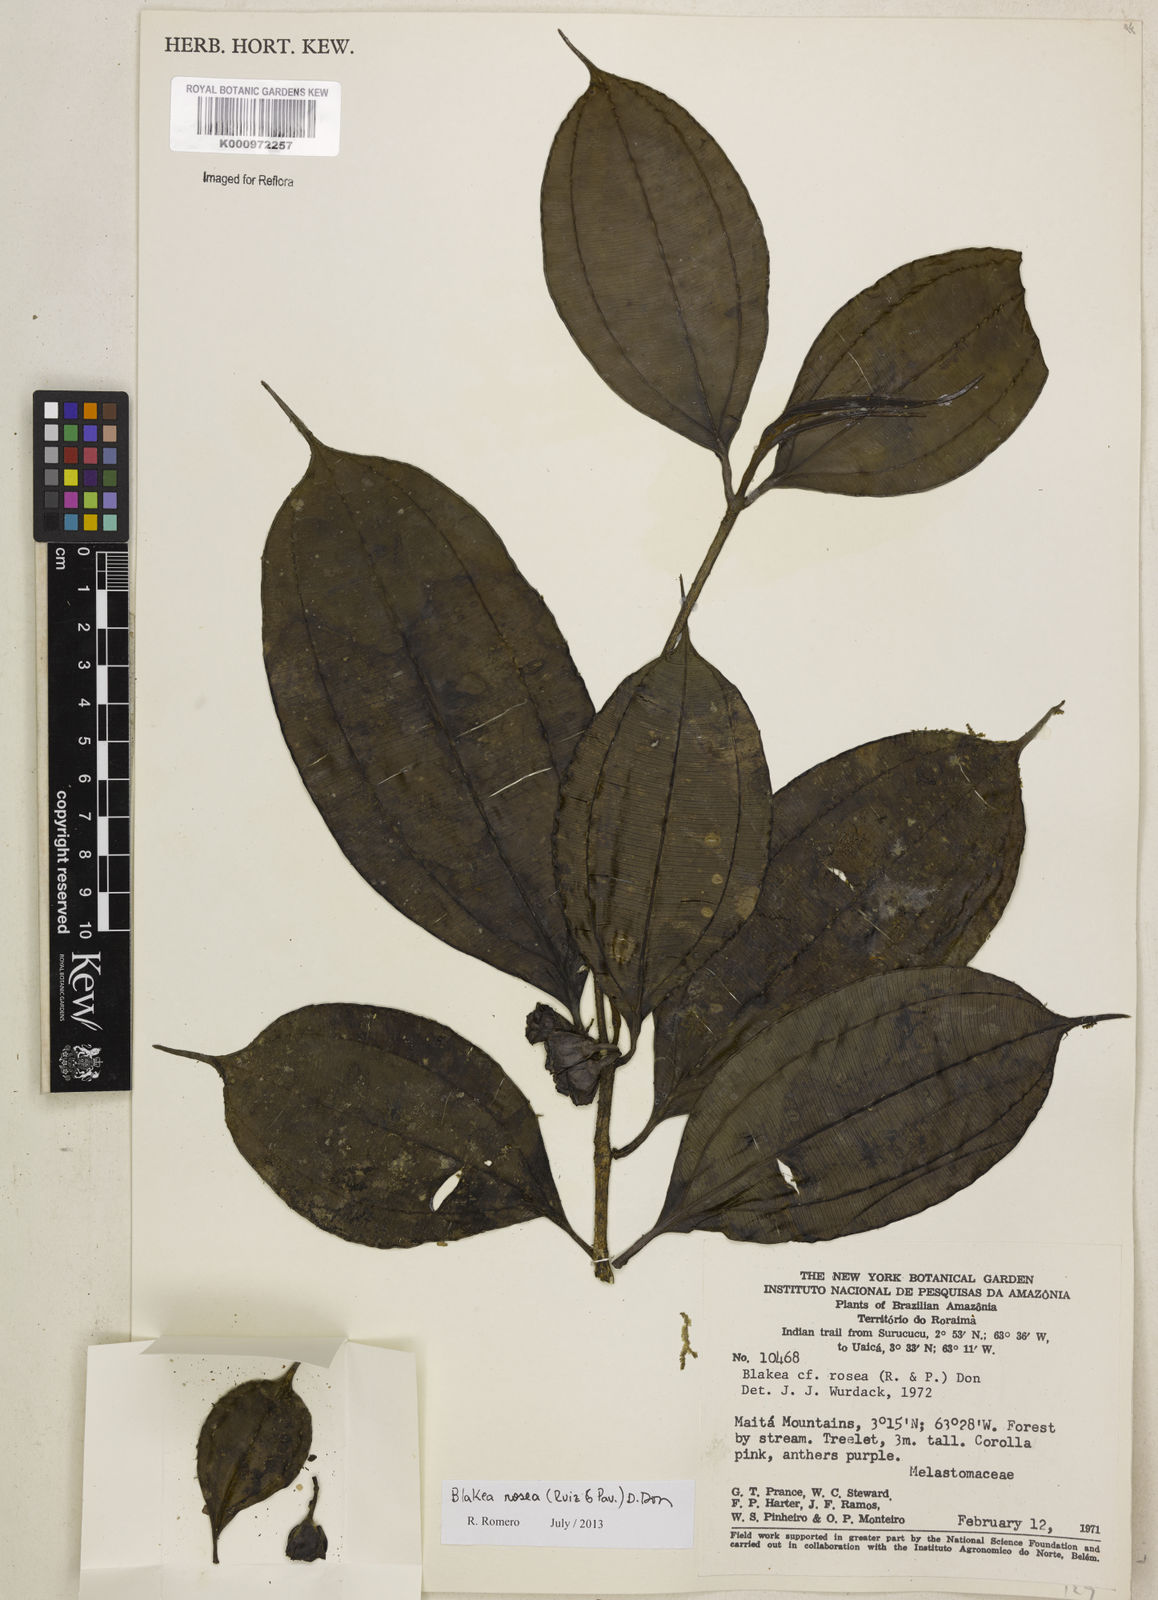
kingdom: Plantae
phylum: Tracheophyta
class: Magnoliopsida
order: Myrtales
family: Melastomataceae
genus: Blakea
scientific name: Blakea rosea
